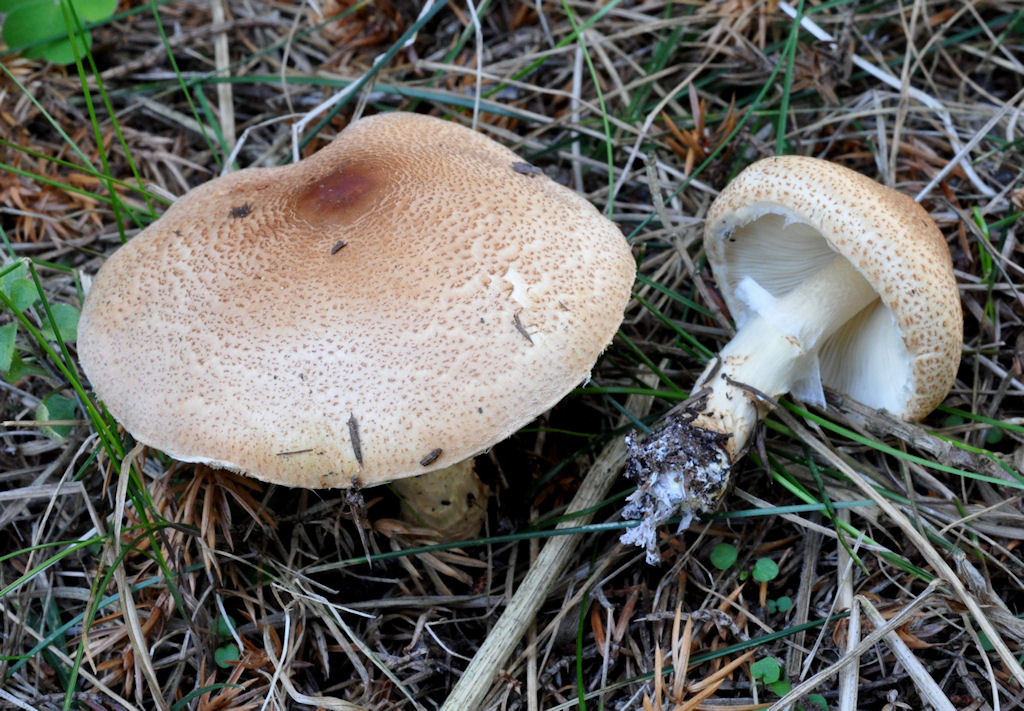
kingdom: Fungi
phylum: Basidiomycota
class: Agaricomycetes
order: Agaricales
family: Agaricaceae
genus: Lepiota
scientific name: Lepiota ochraceofulva
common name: sødtduftende parasolhat
